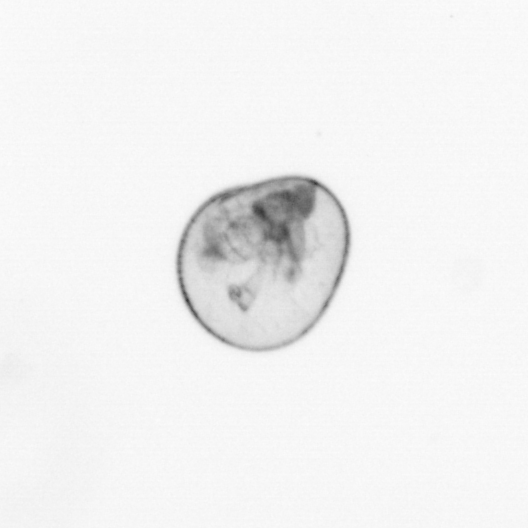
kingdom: Chromista
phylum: Myzozoa
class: Dinophyceae
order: Noctilucales
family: Noctilucaceae
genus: Noctiluca
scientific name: Noctiluca scintillans
